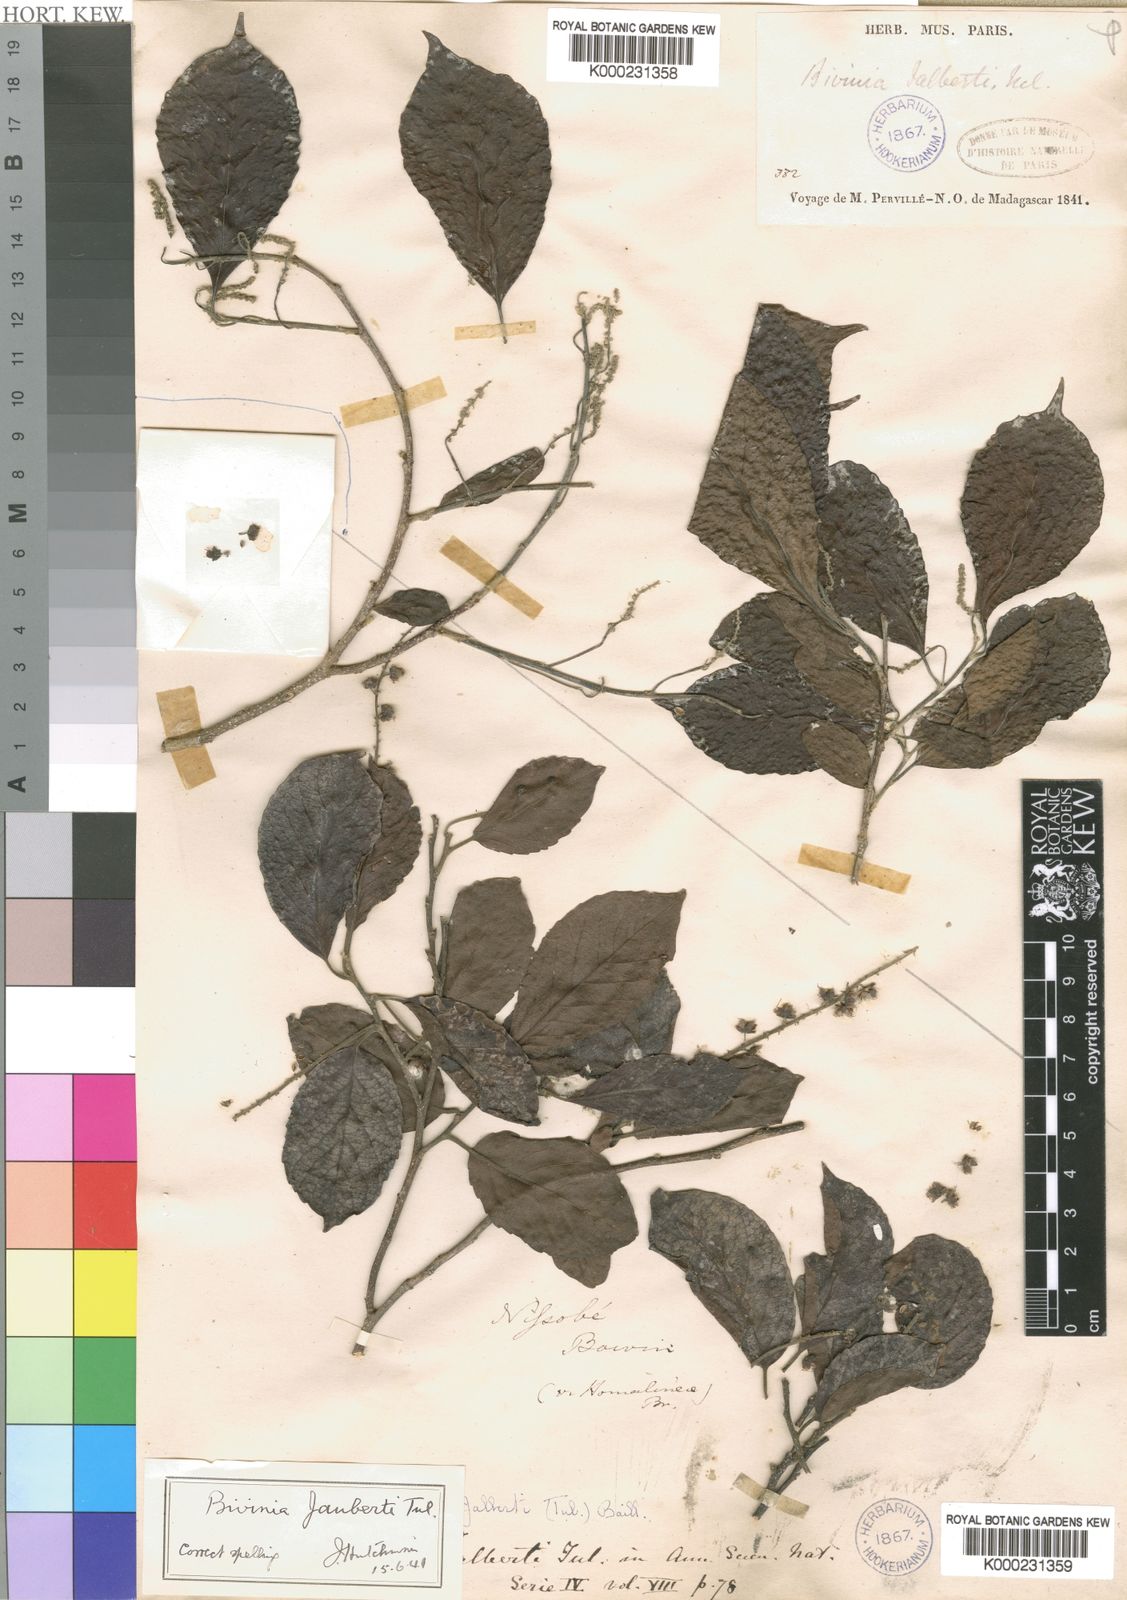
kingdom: Plantae
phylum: Tracheophyta
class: Magnoliopsida
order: Malpighiales
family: Salicaceae
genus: Bivinia
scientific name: Bivinia jalbertii
